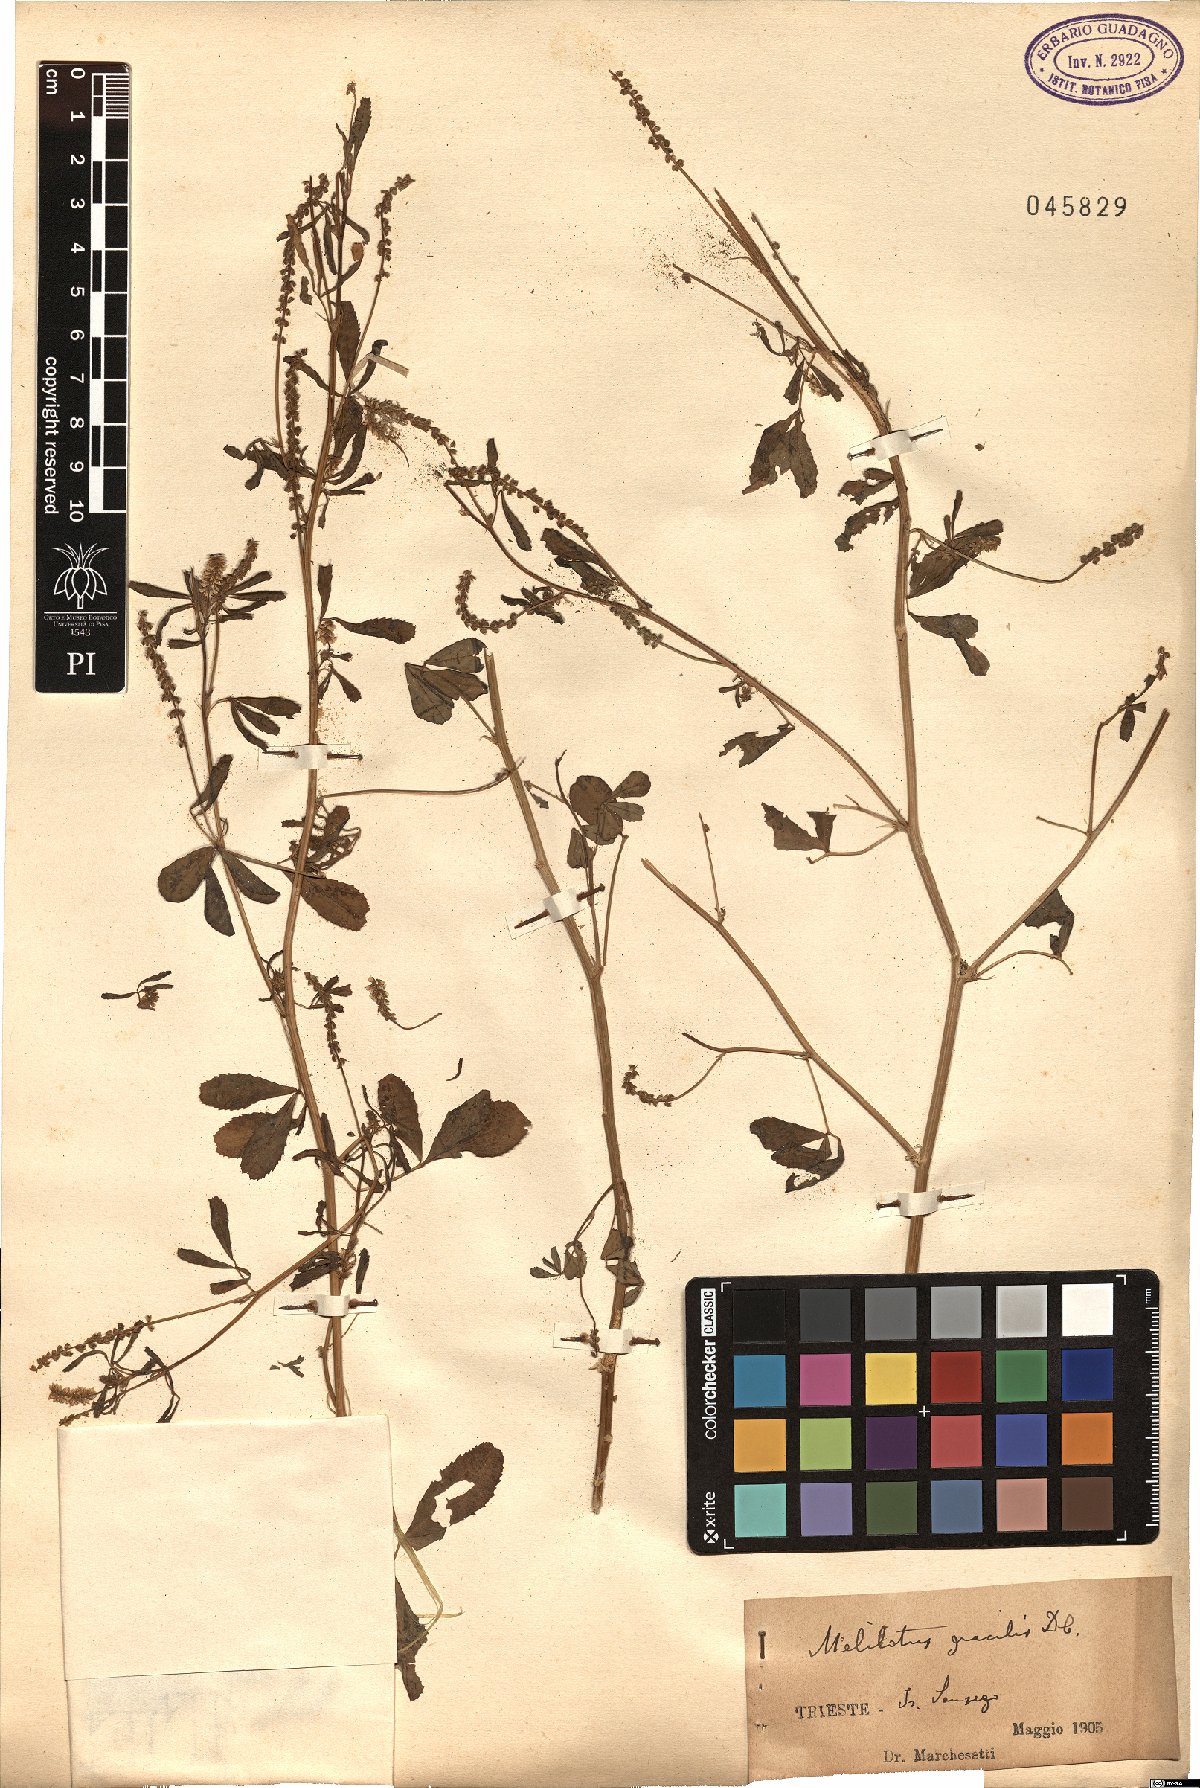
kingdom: Plantae
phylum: Tracheophyta
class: Magnoliopsida
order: Fabales
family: Fabaceae
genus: Melilotus
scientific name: Melilotus neapolitanus
